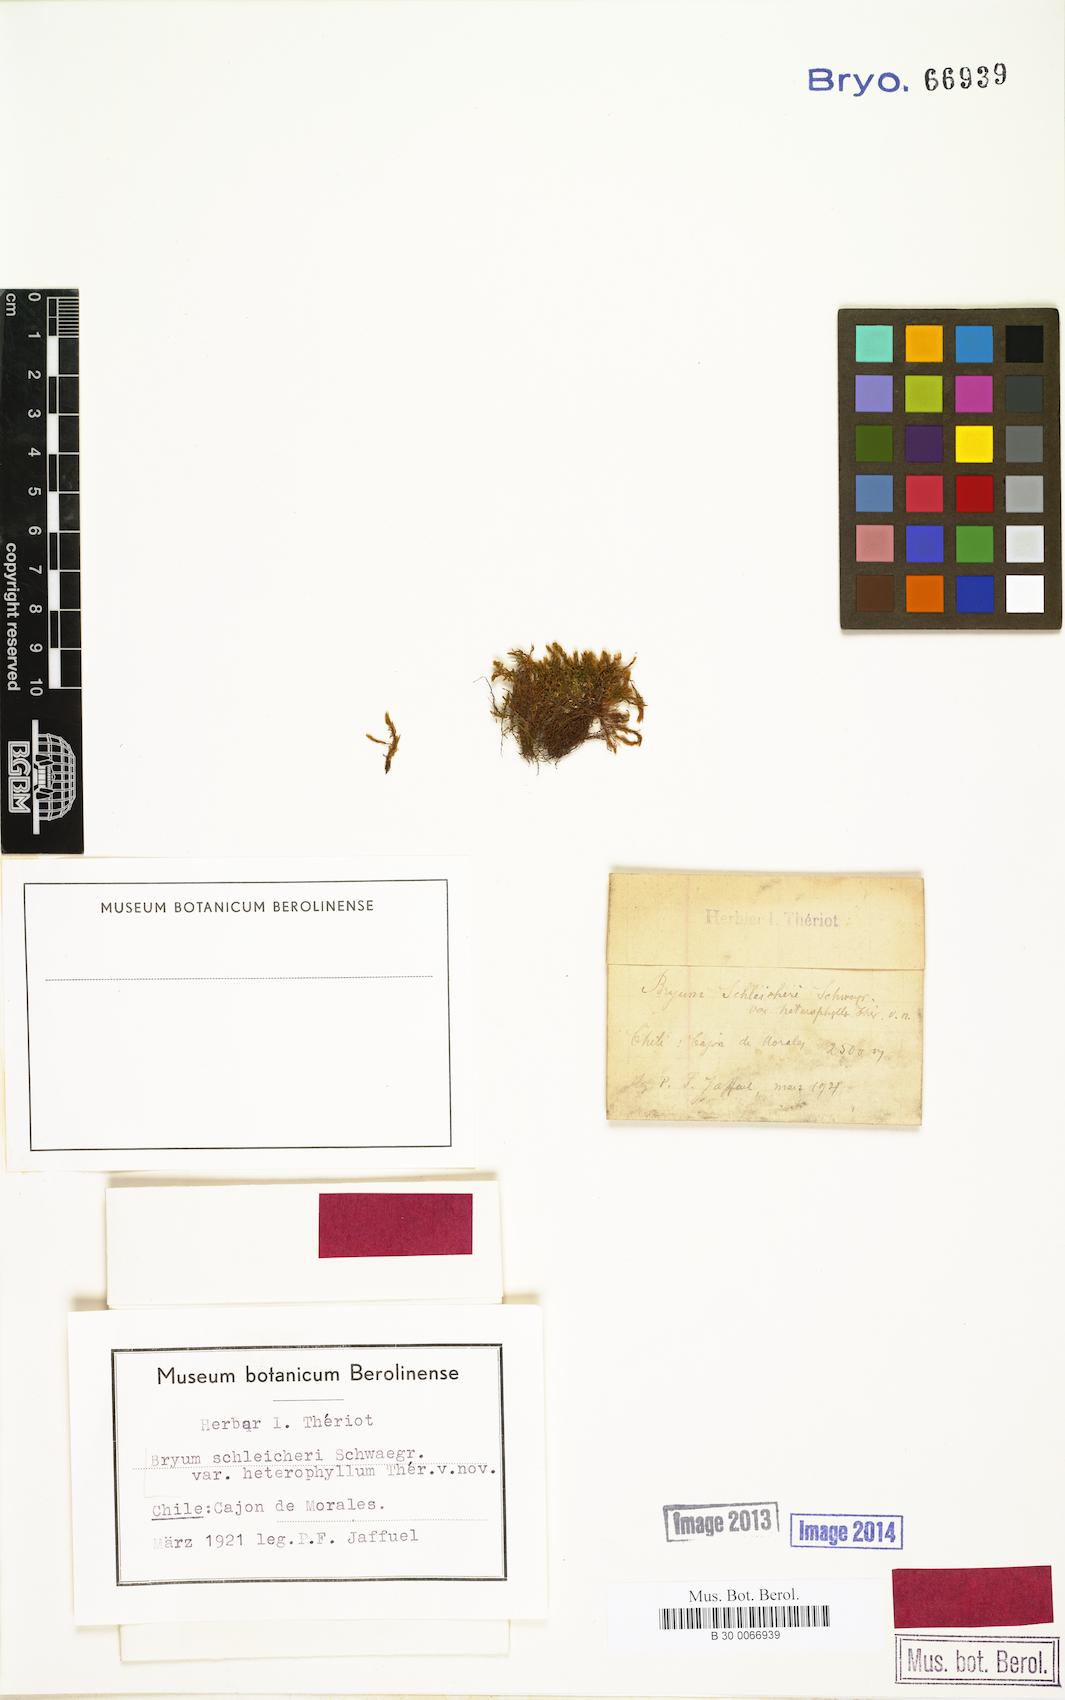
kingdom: Plantae
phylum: Bryophyta
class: Bryopsida
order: Bryales
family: Bryaceae
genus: Ptychostomum
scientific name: Ptychostomum schleicheri
